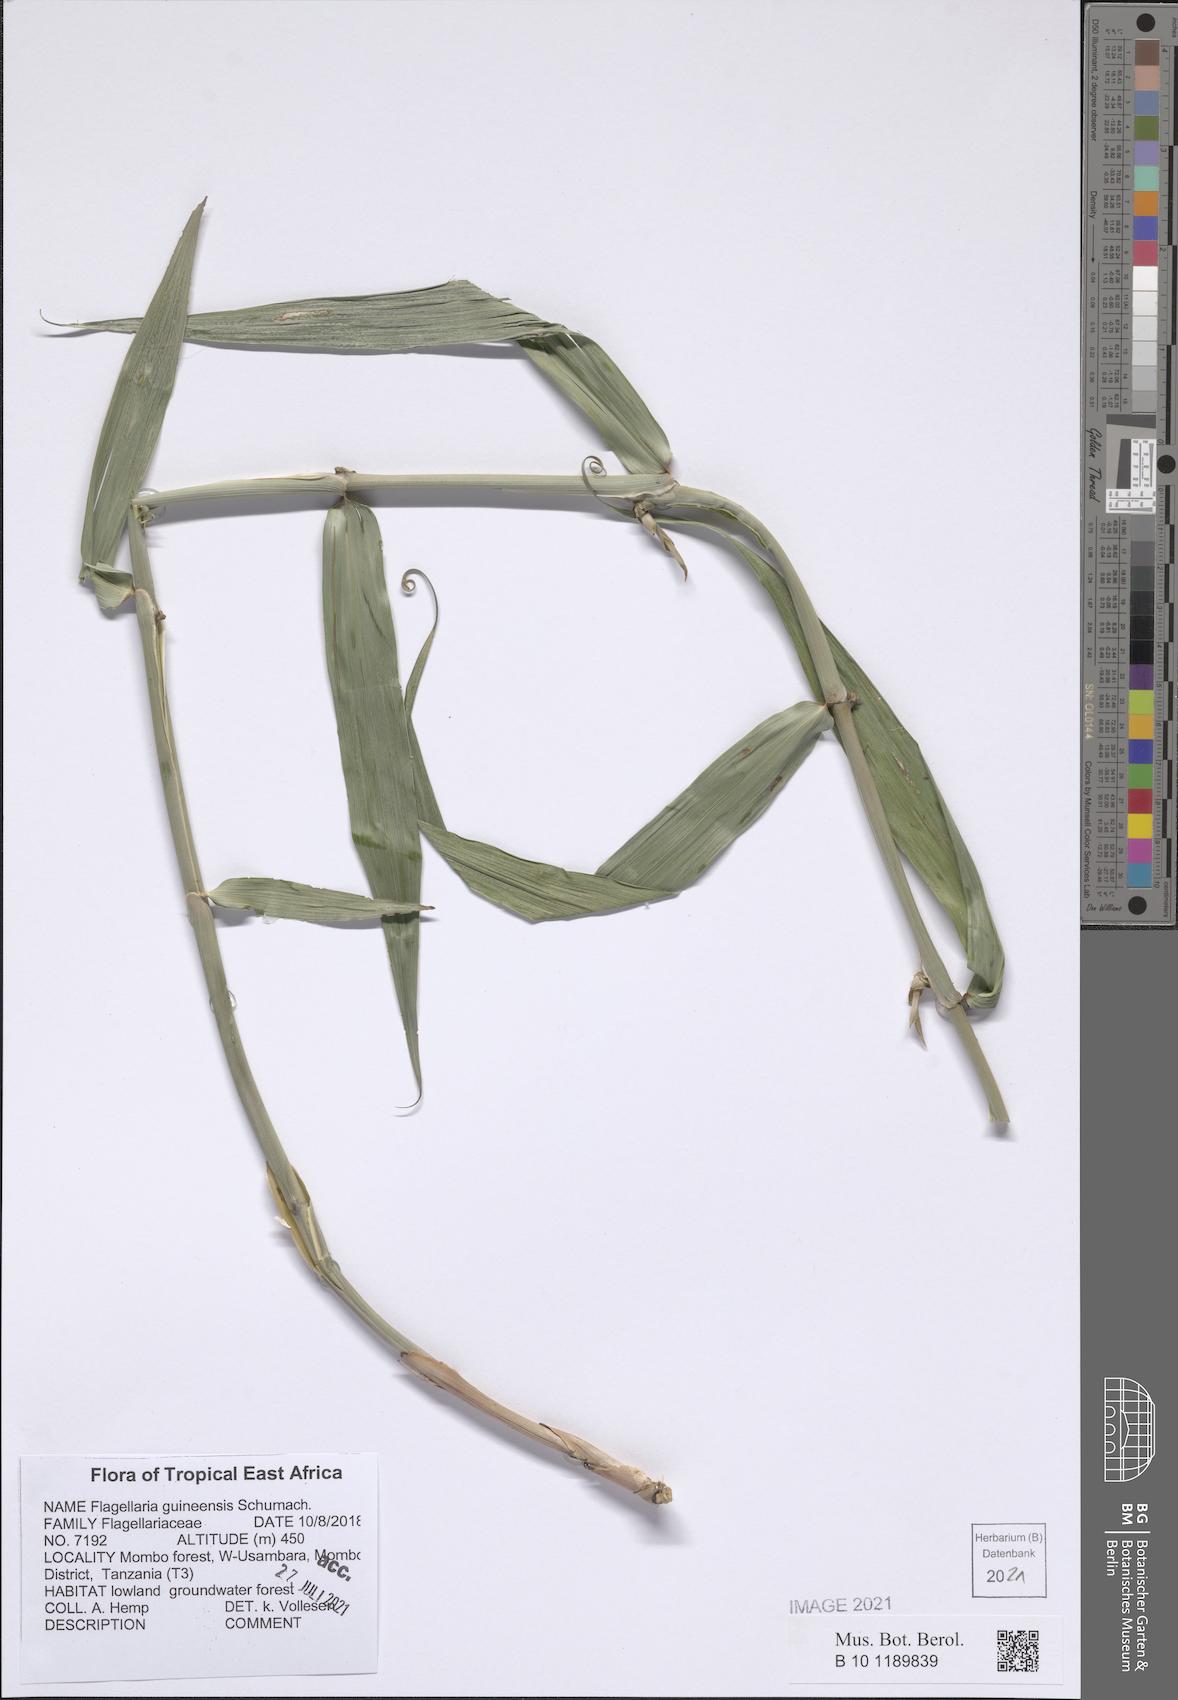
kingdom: Plantae
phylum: Tracheophyta
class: Liliopsida
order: Poales
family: Flagellariaceae
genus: Flagellaria
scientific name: Flagellaria guineensis
